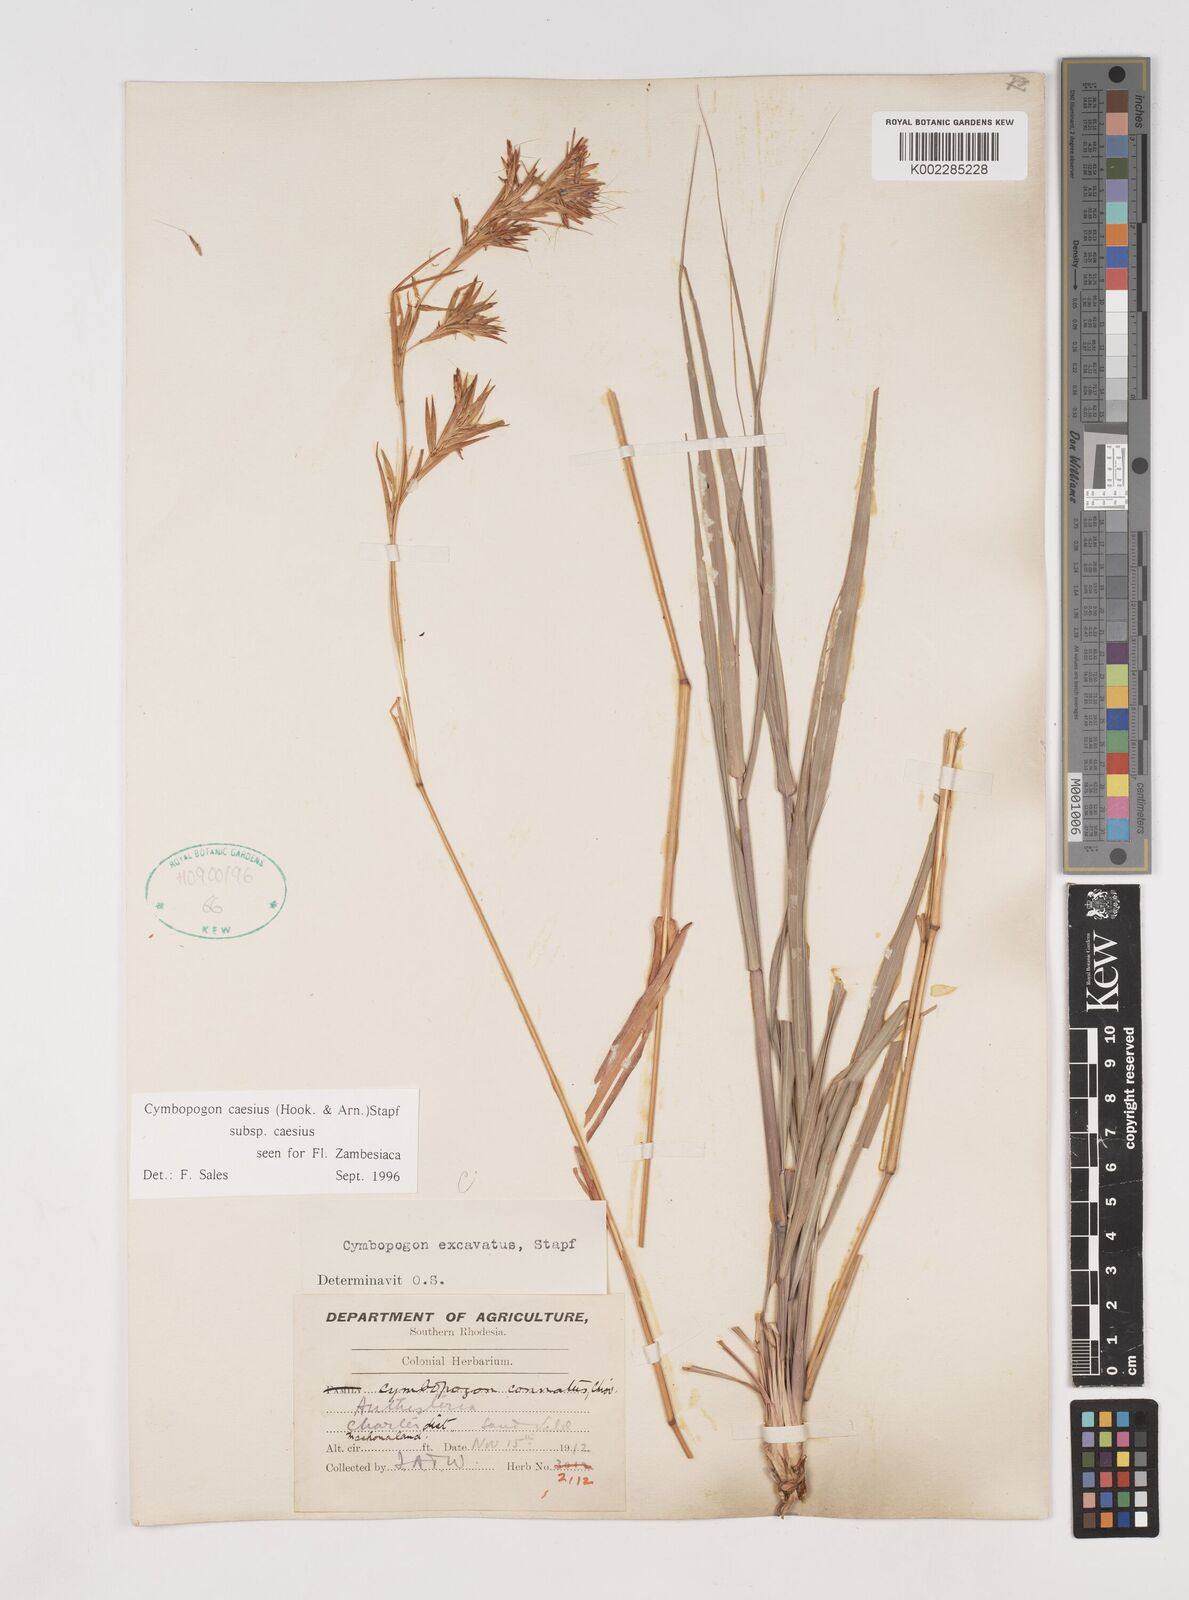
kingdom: Plantae
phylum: Tracheophyta
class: Liliopsida
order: Poales
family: Poaceae
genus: Cymbopogon
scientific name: Cymbopogon caesius
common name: Kachi grass
